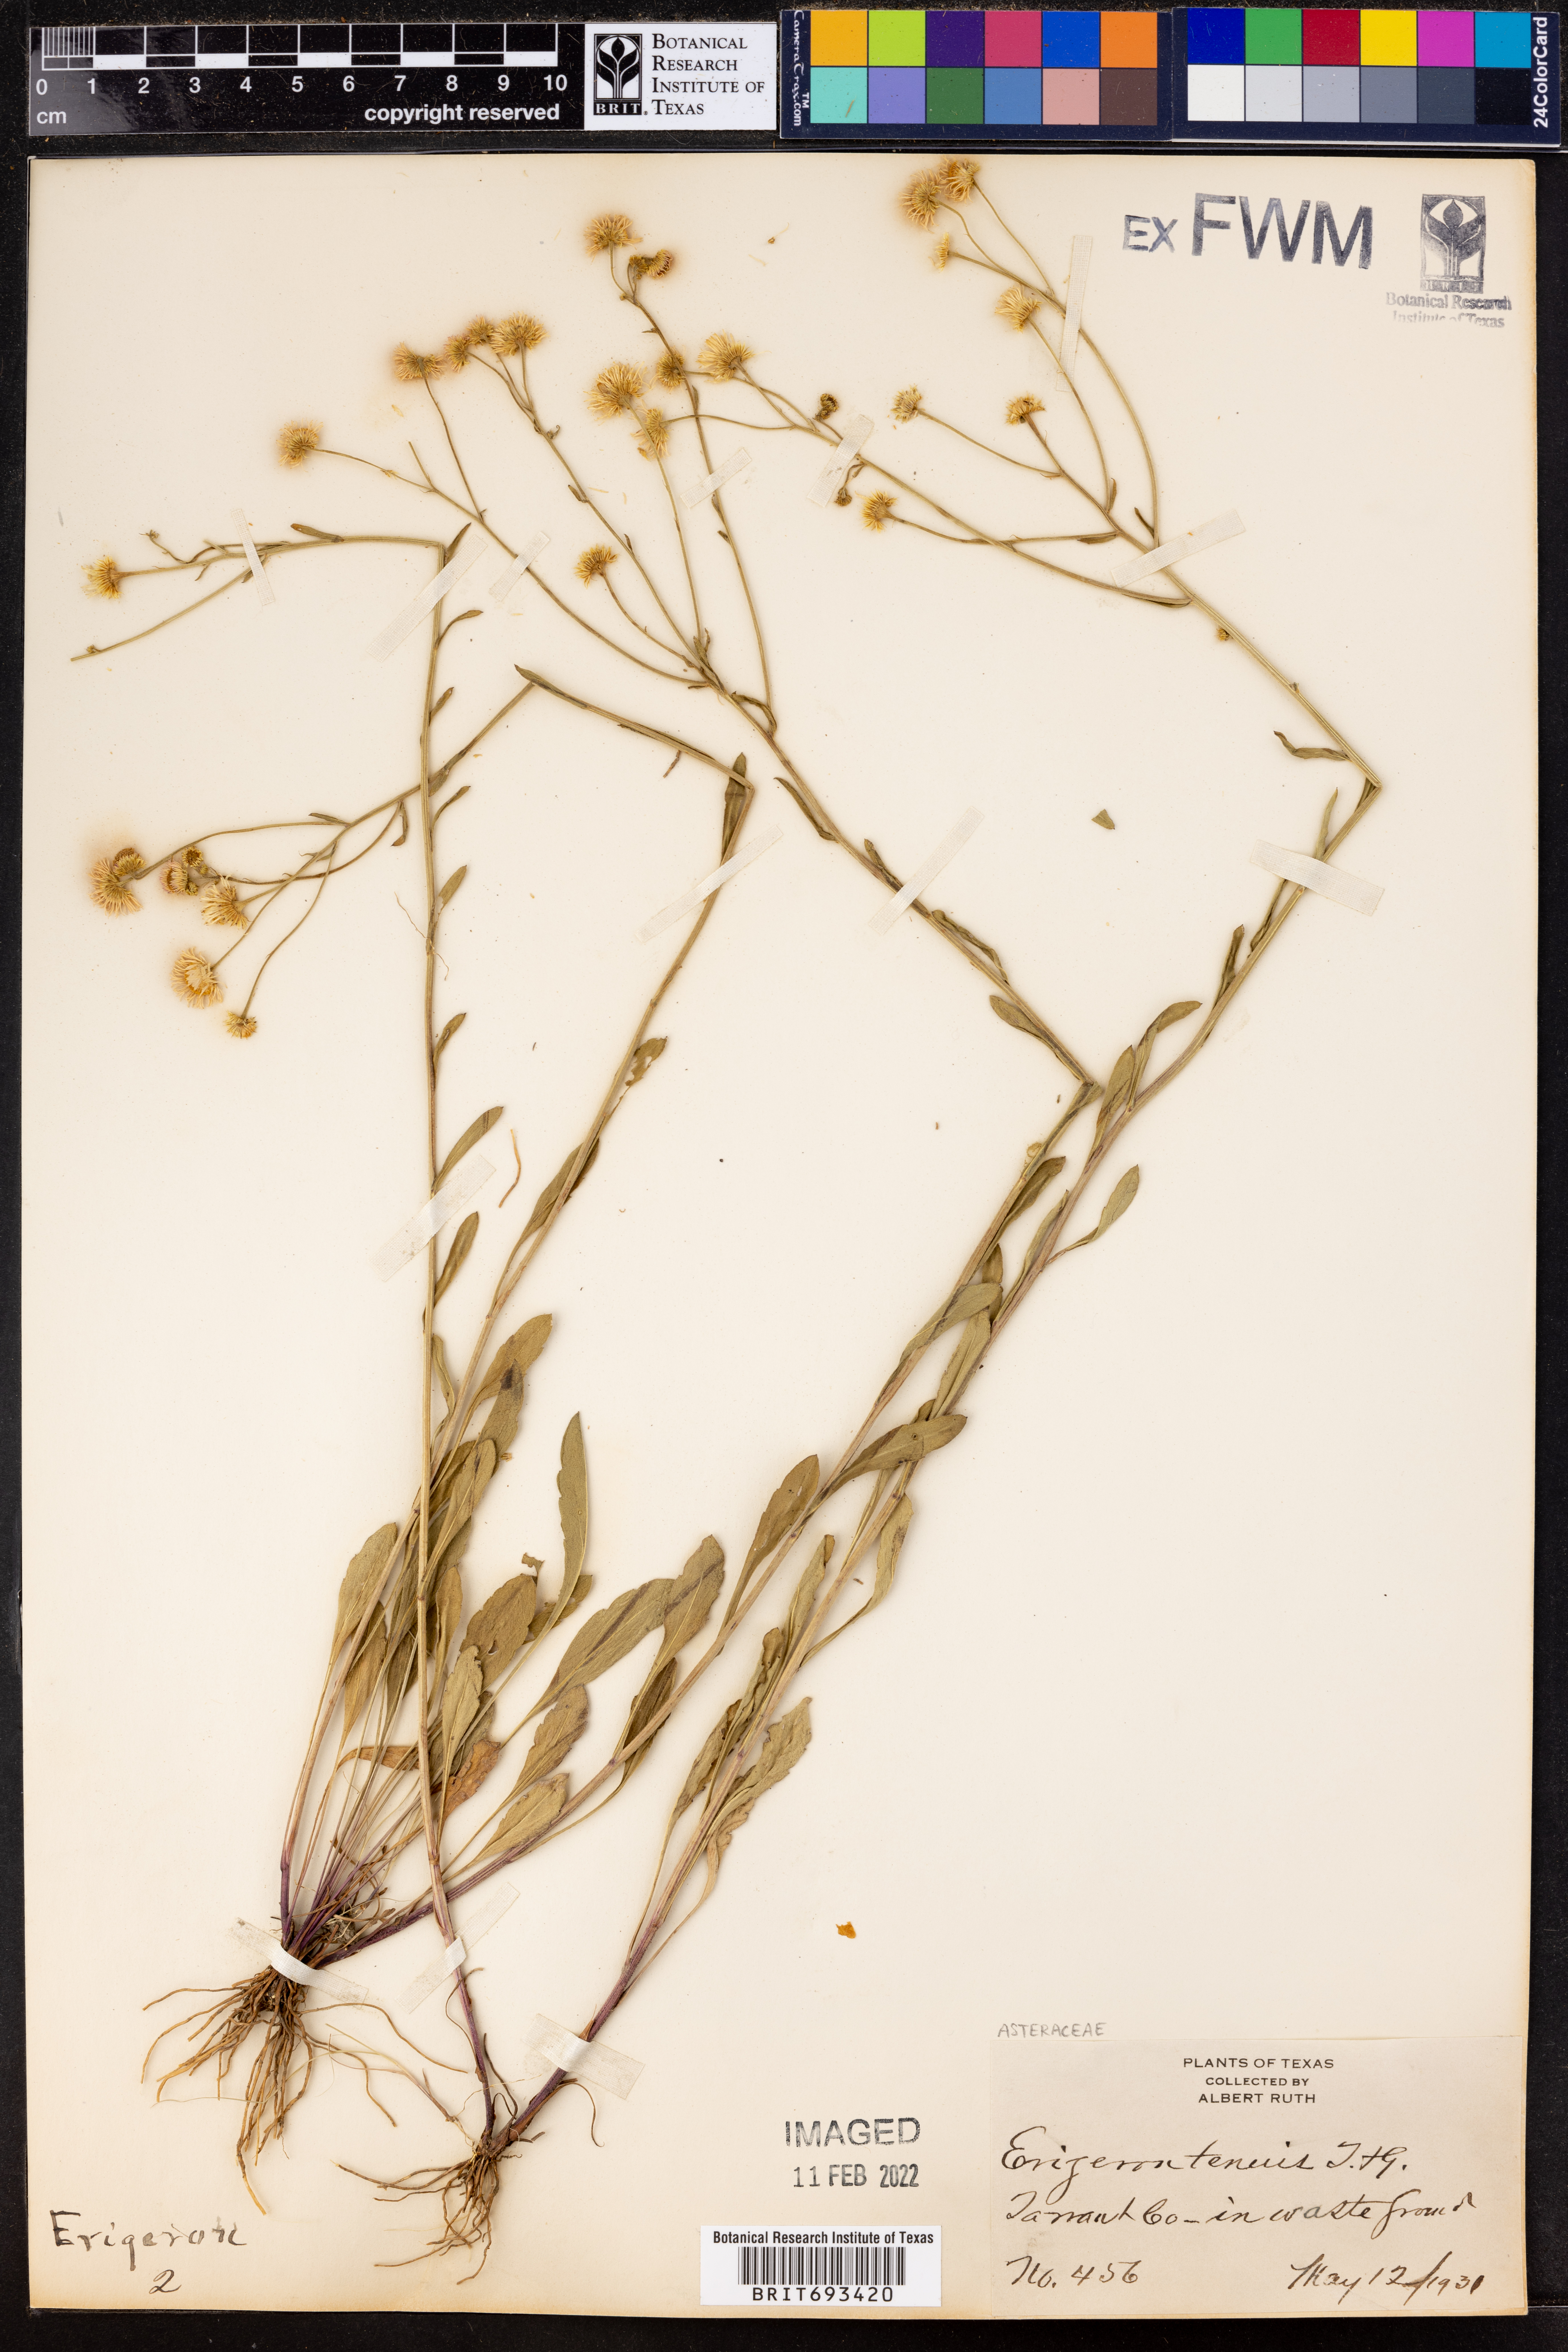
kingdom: Plantae
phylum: Tracheophyta
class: Magnoliopsida
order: Asterales
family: Asteraceae
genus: Erigeron
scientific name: Erigeron tenuis
